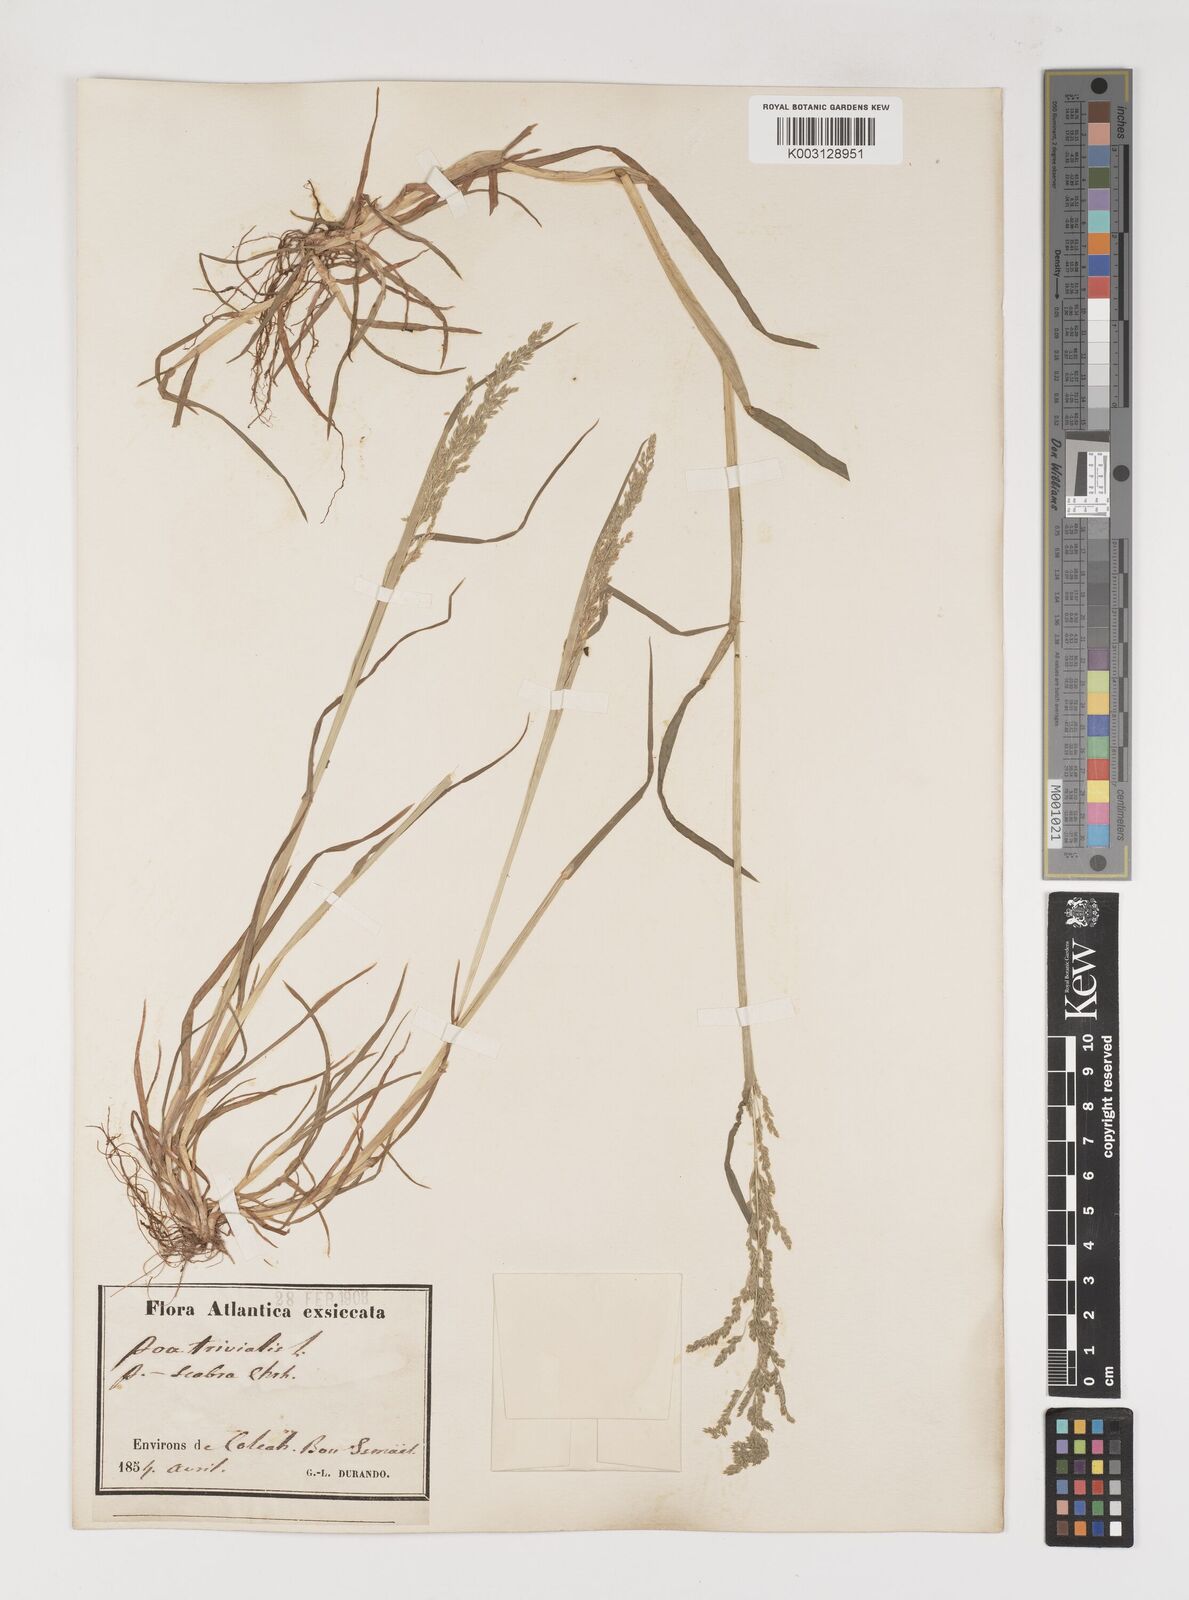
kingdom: Plantae
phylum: Tracheophyta
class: Liliopsida
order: Poales
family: Poaceae
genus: Poa
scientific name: Poa trivialis
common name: Rough bluegrass
